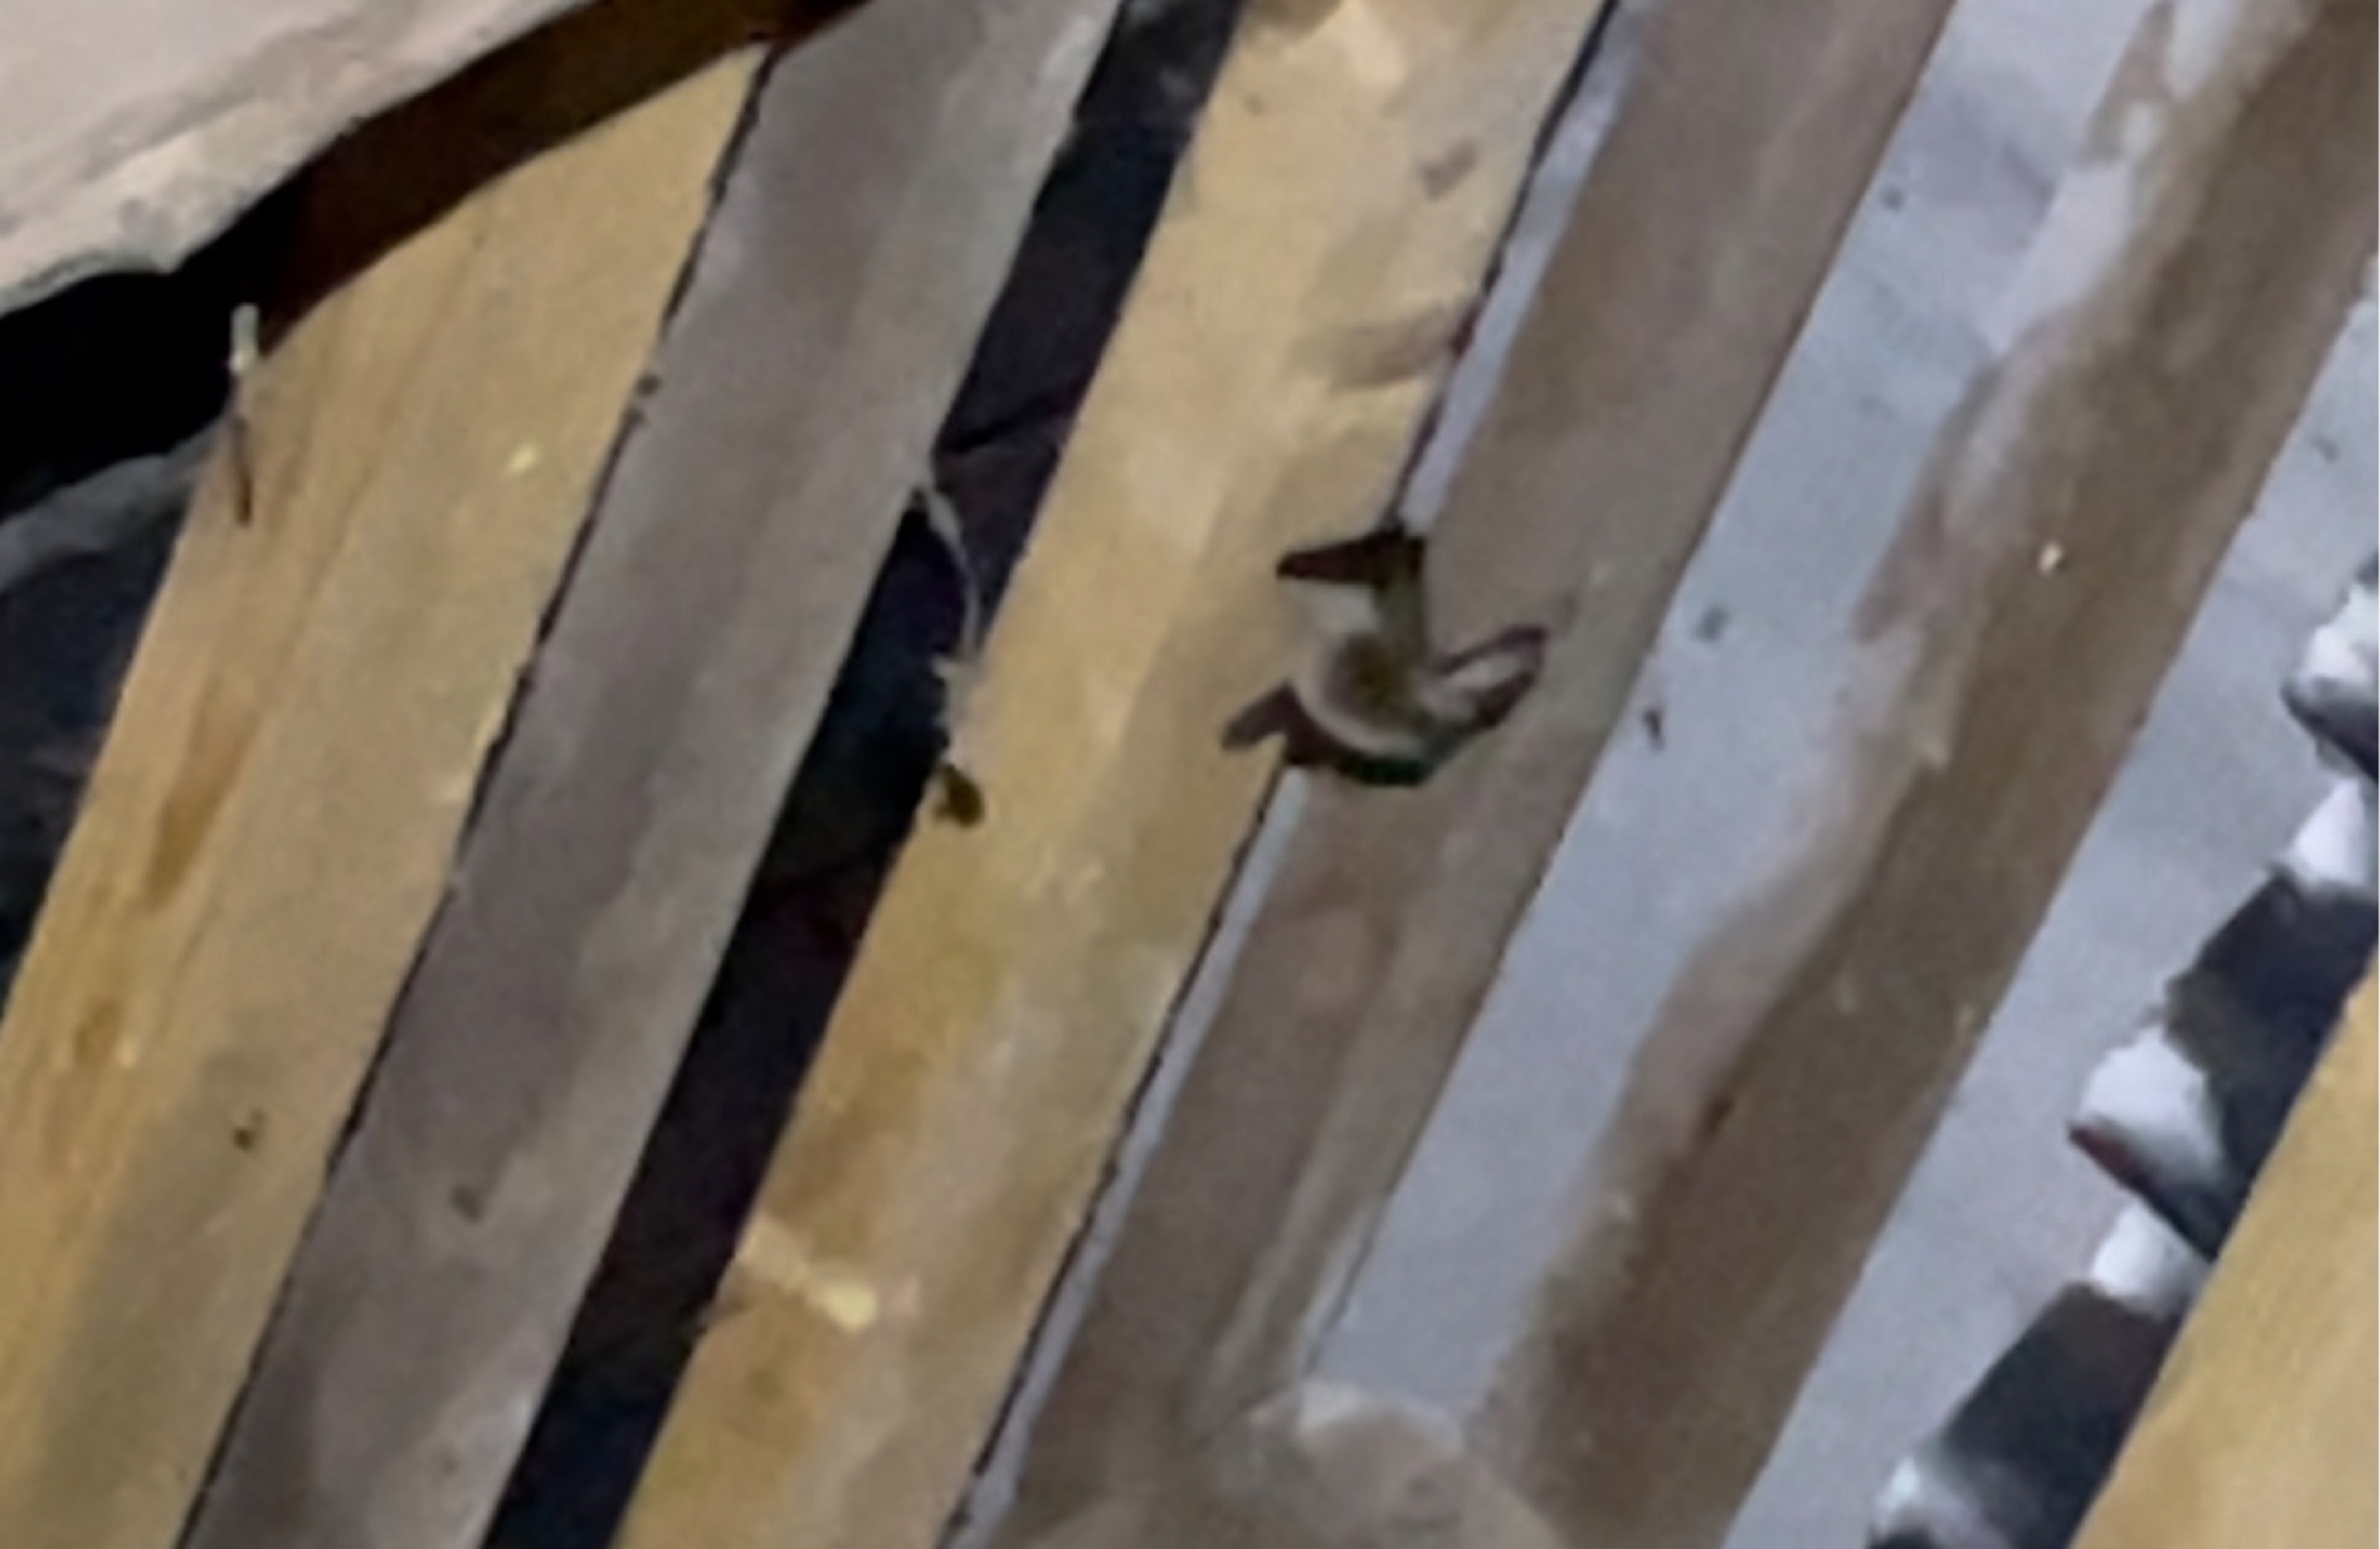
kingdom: Animalia
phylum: Chordata
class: Mammalia
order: Chiroptera
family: Vespertilionidae
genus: Plecotus
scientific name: Plecotus auritus
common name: Brun langøre
